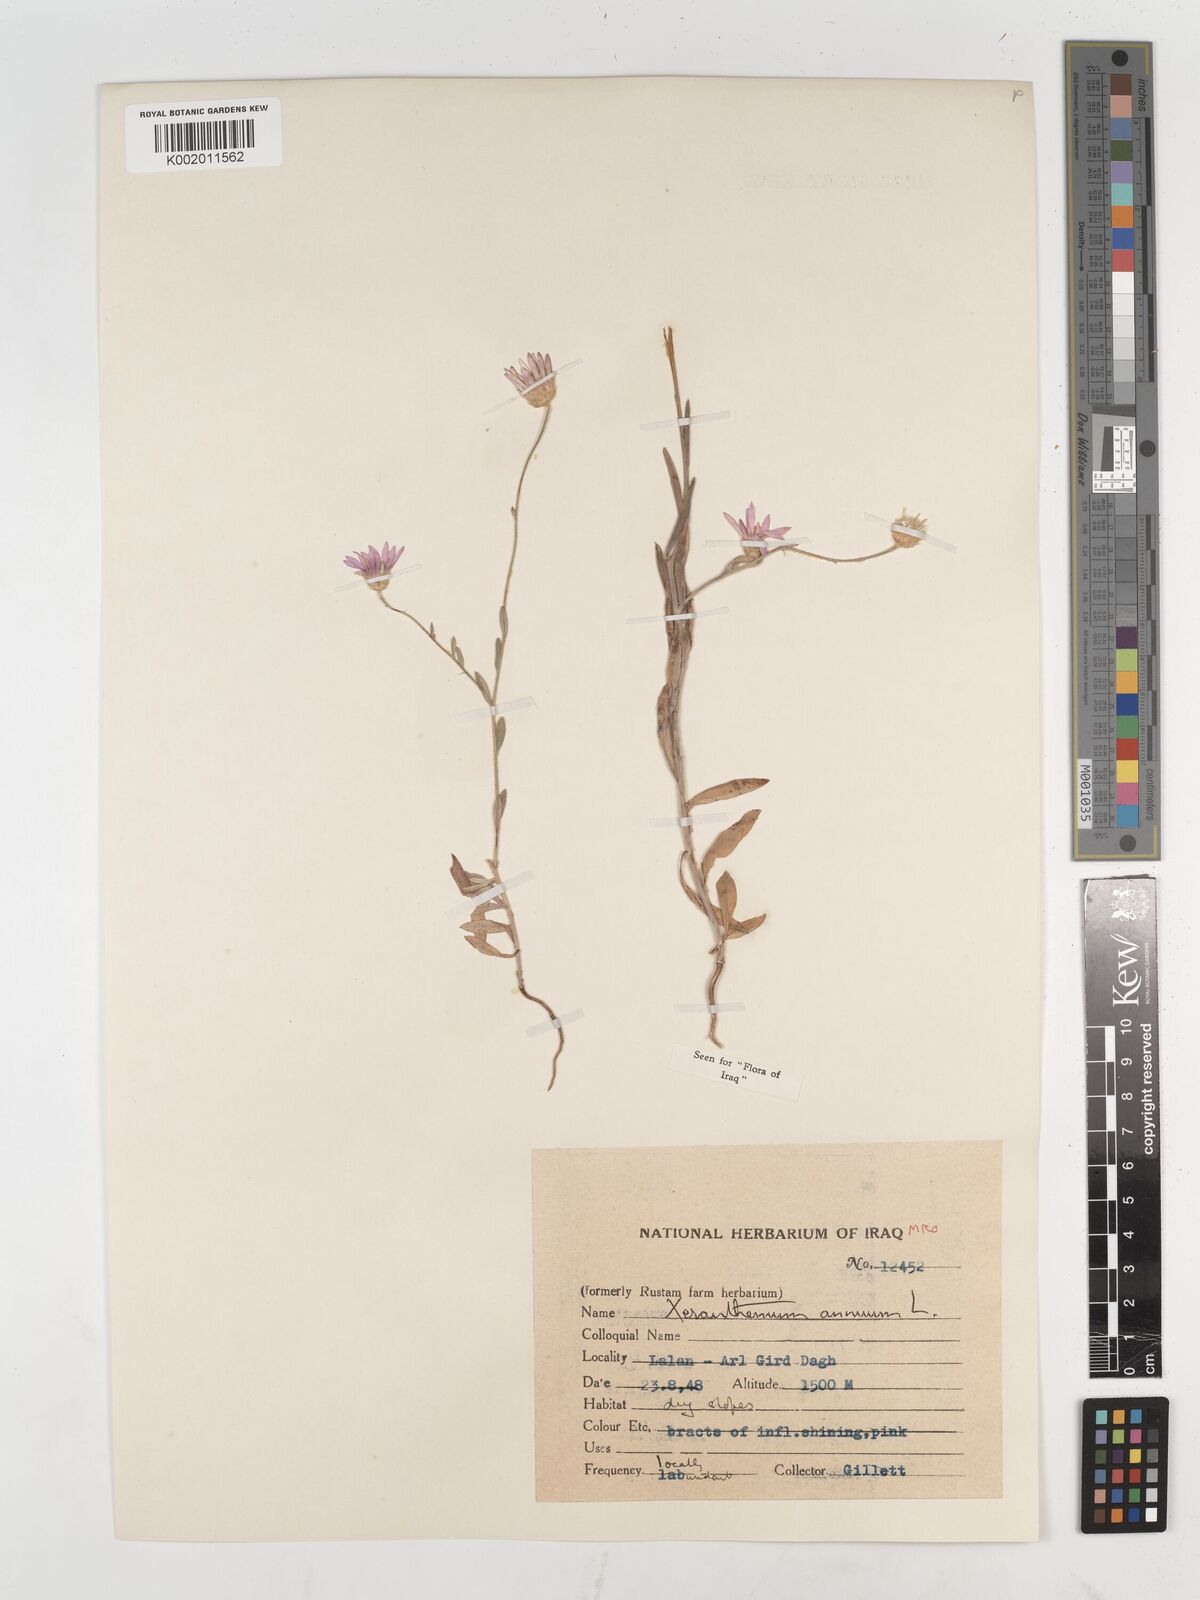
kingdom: Plantae
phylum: Tracheophyta
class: Magnoliopsida
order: Asterales
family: Asteraceae
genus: Xeranthemum
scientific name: Xeranthemum annuum
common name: Immortelle
